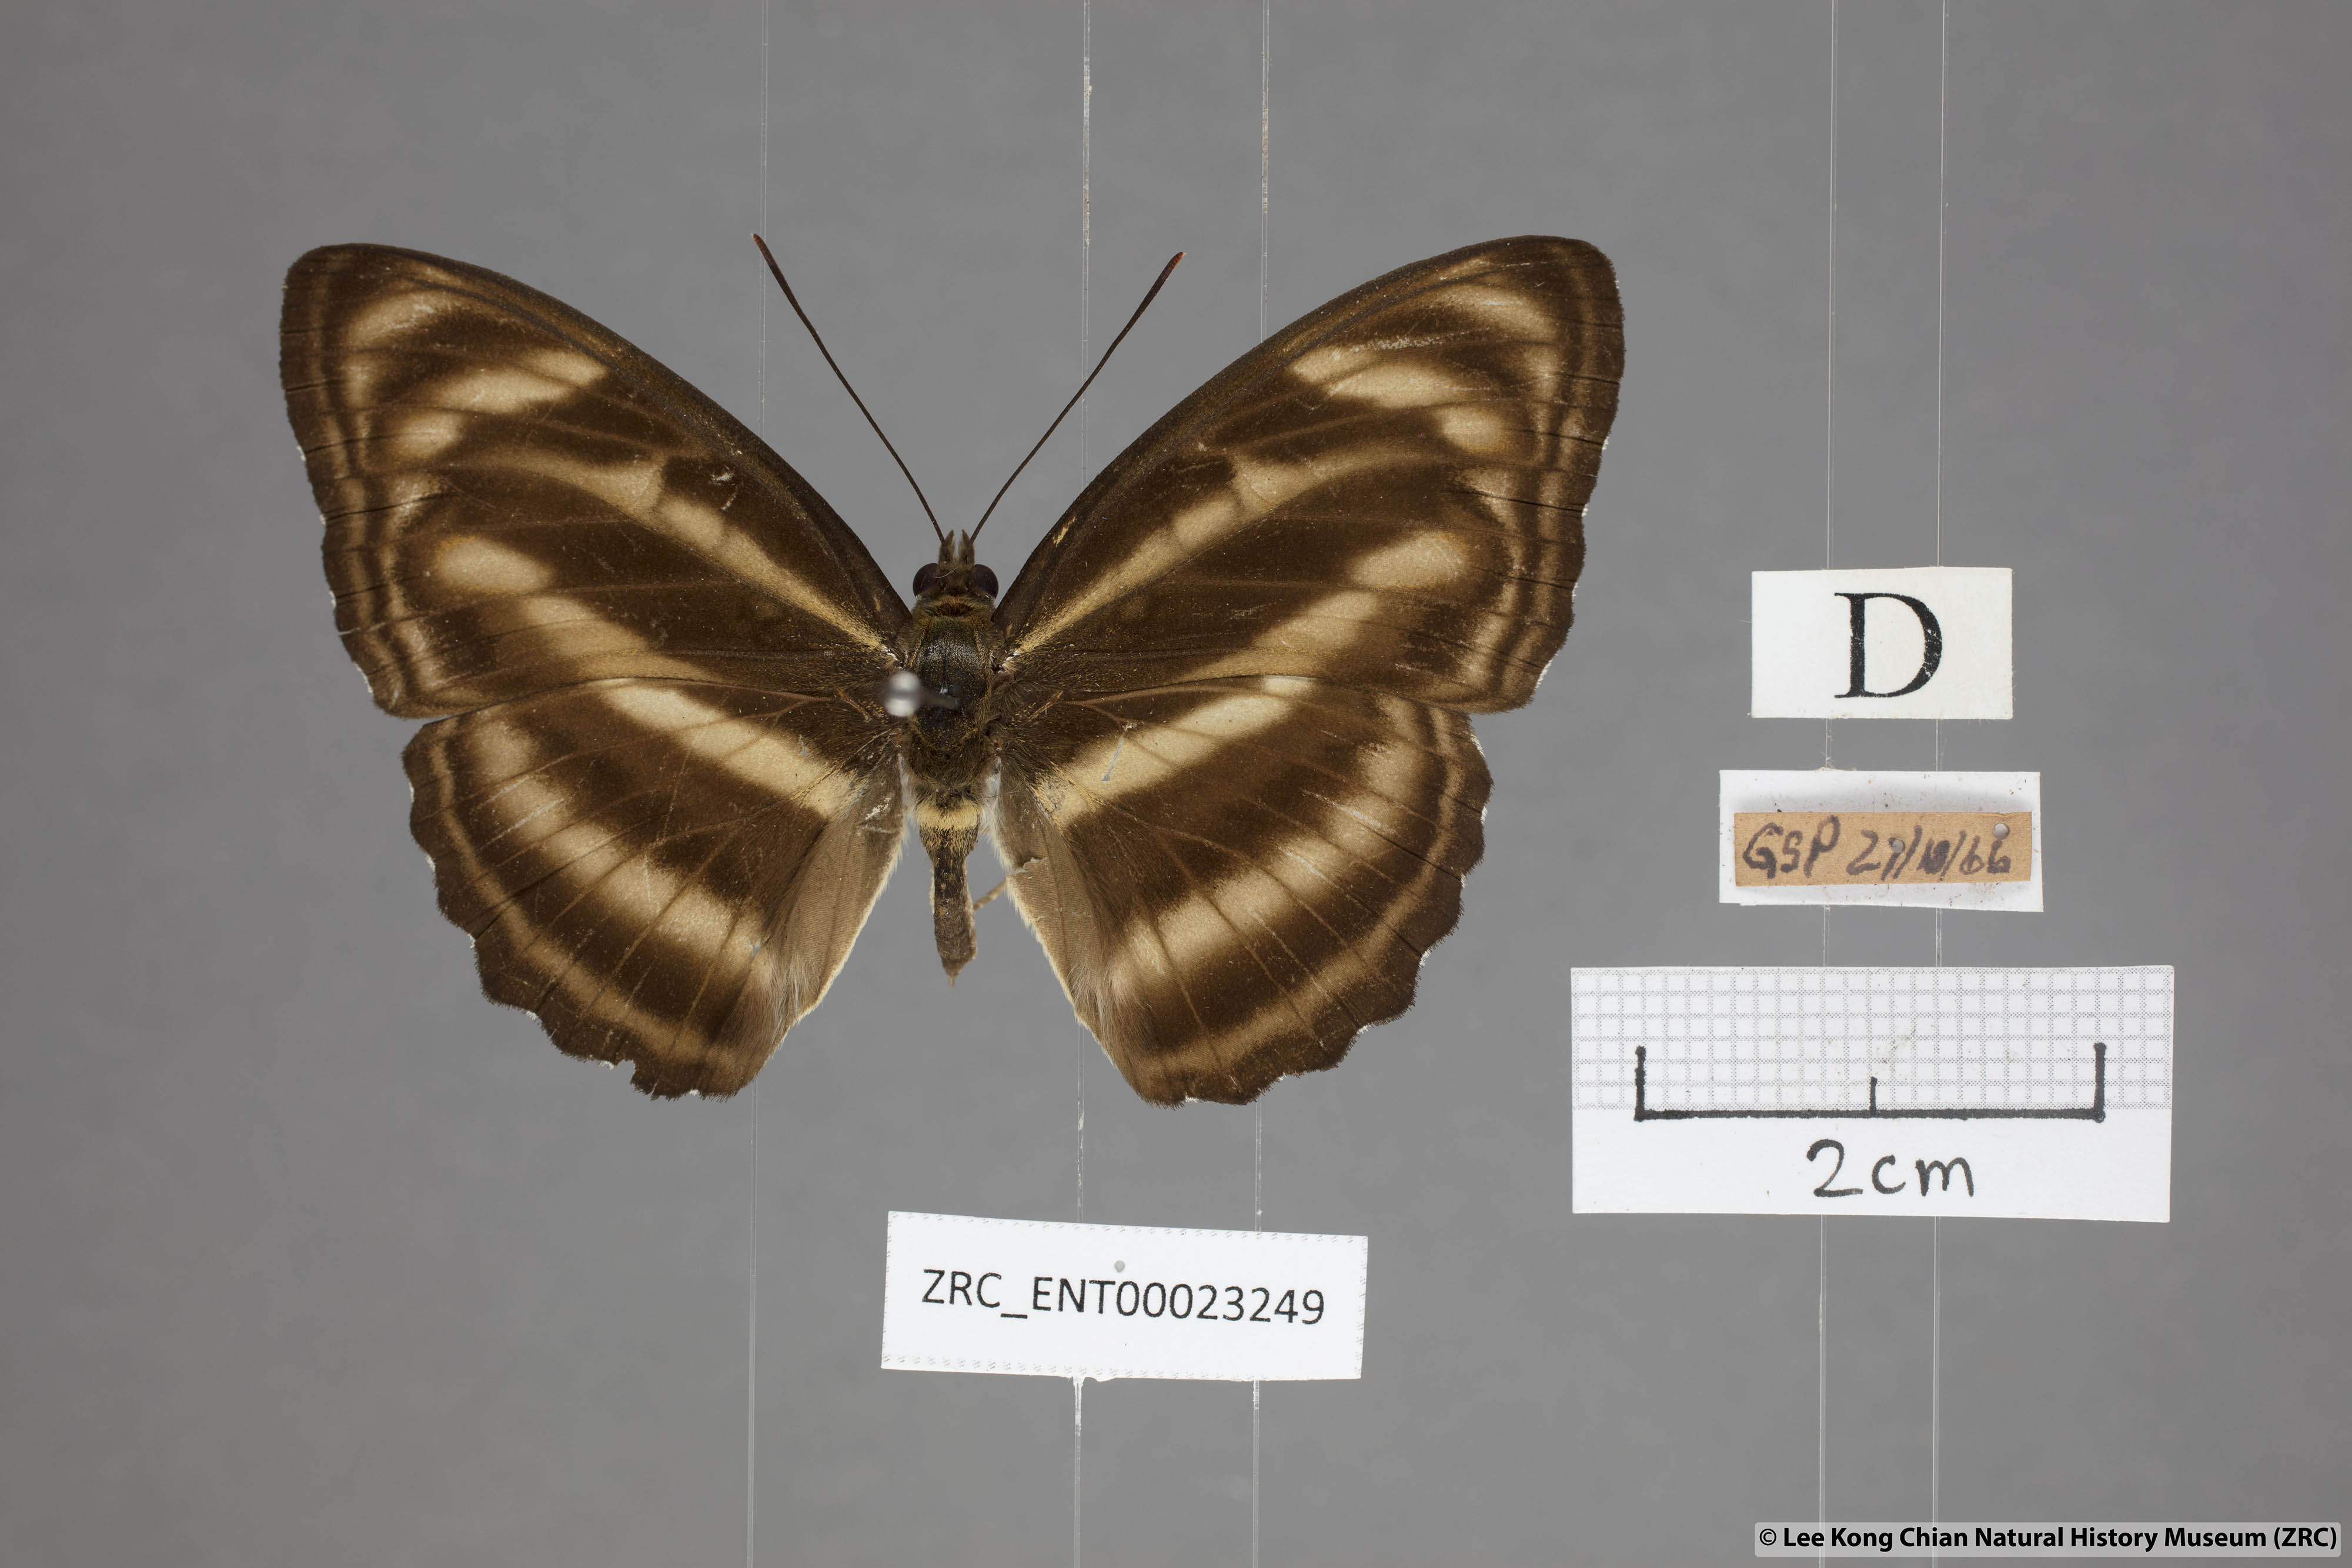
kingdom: Animalia
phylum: Arthropoda
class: Insecta
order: Lepidoptera
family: Nymphalidae
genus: Parathyma
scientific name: Parathyma nefte
